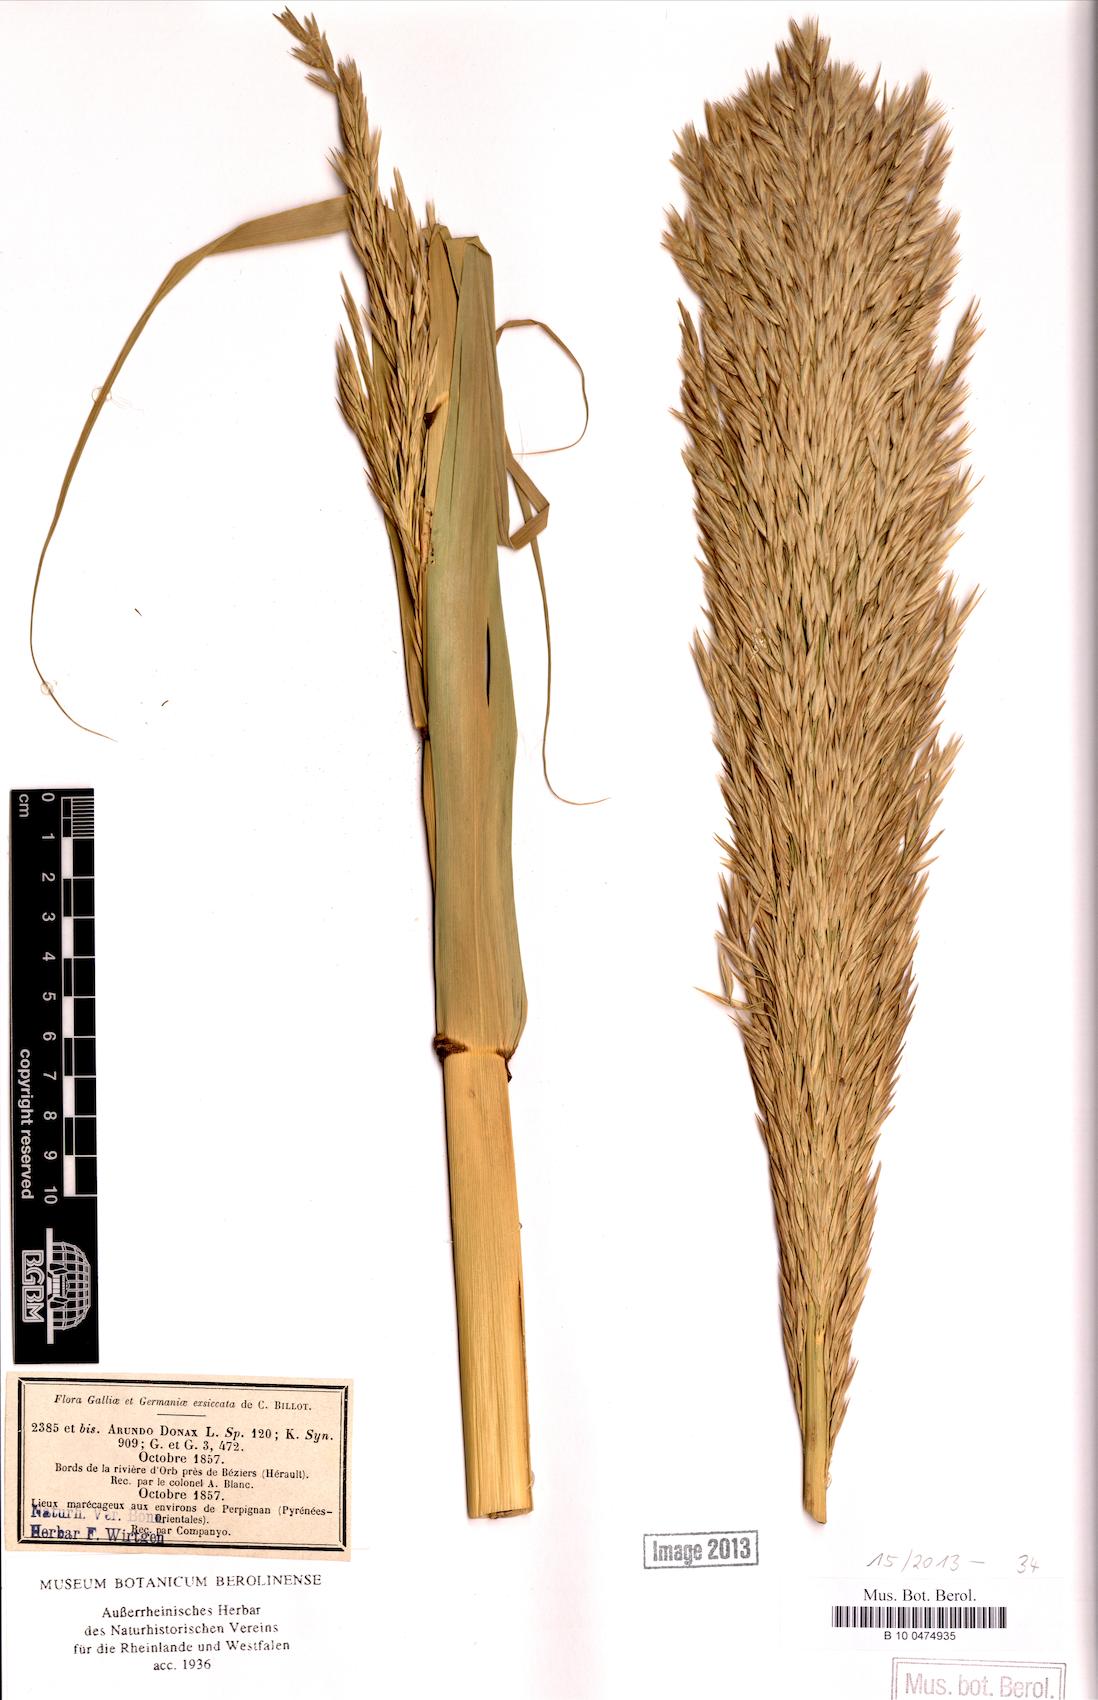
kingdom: Plantae
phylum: Tracheophyta
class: Liliopsida
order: Poales
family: Poaceae
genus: Arundo
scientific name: Arundo donax
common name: Giant reed
